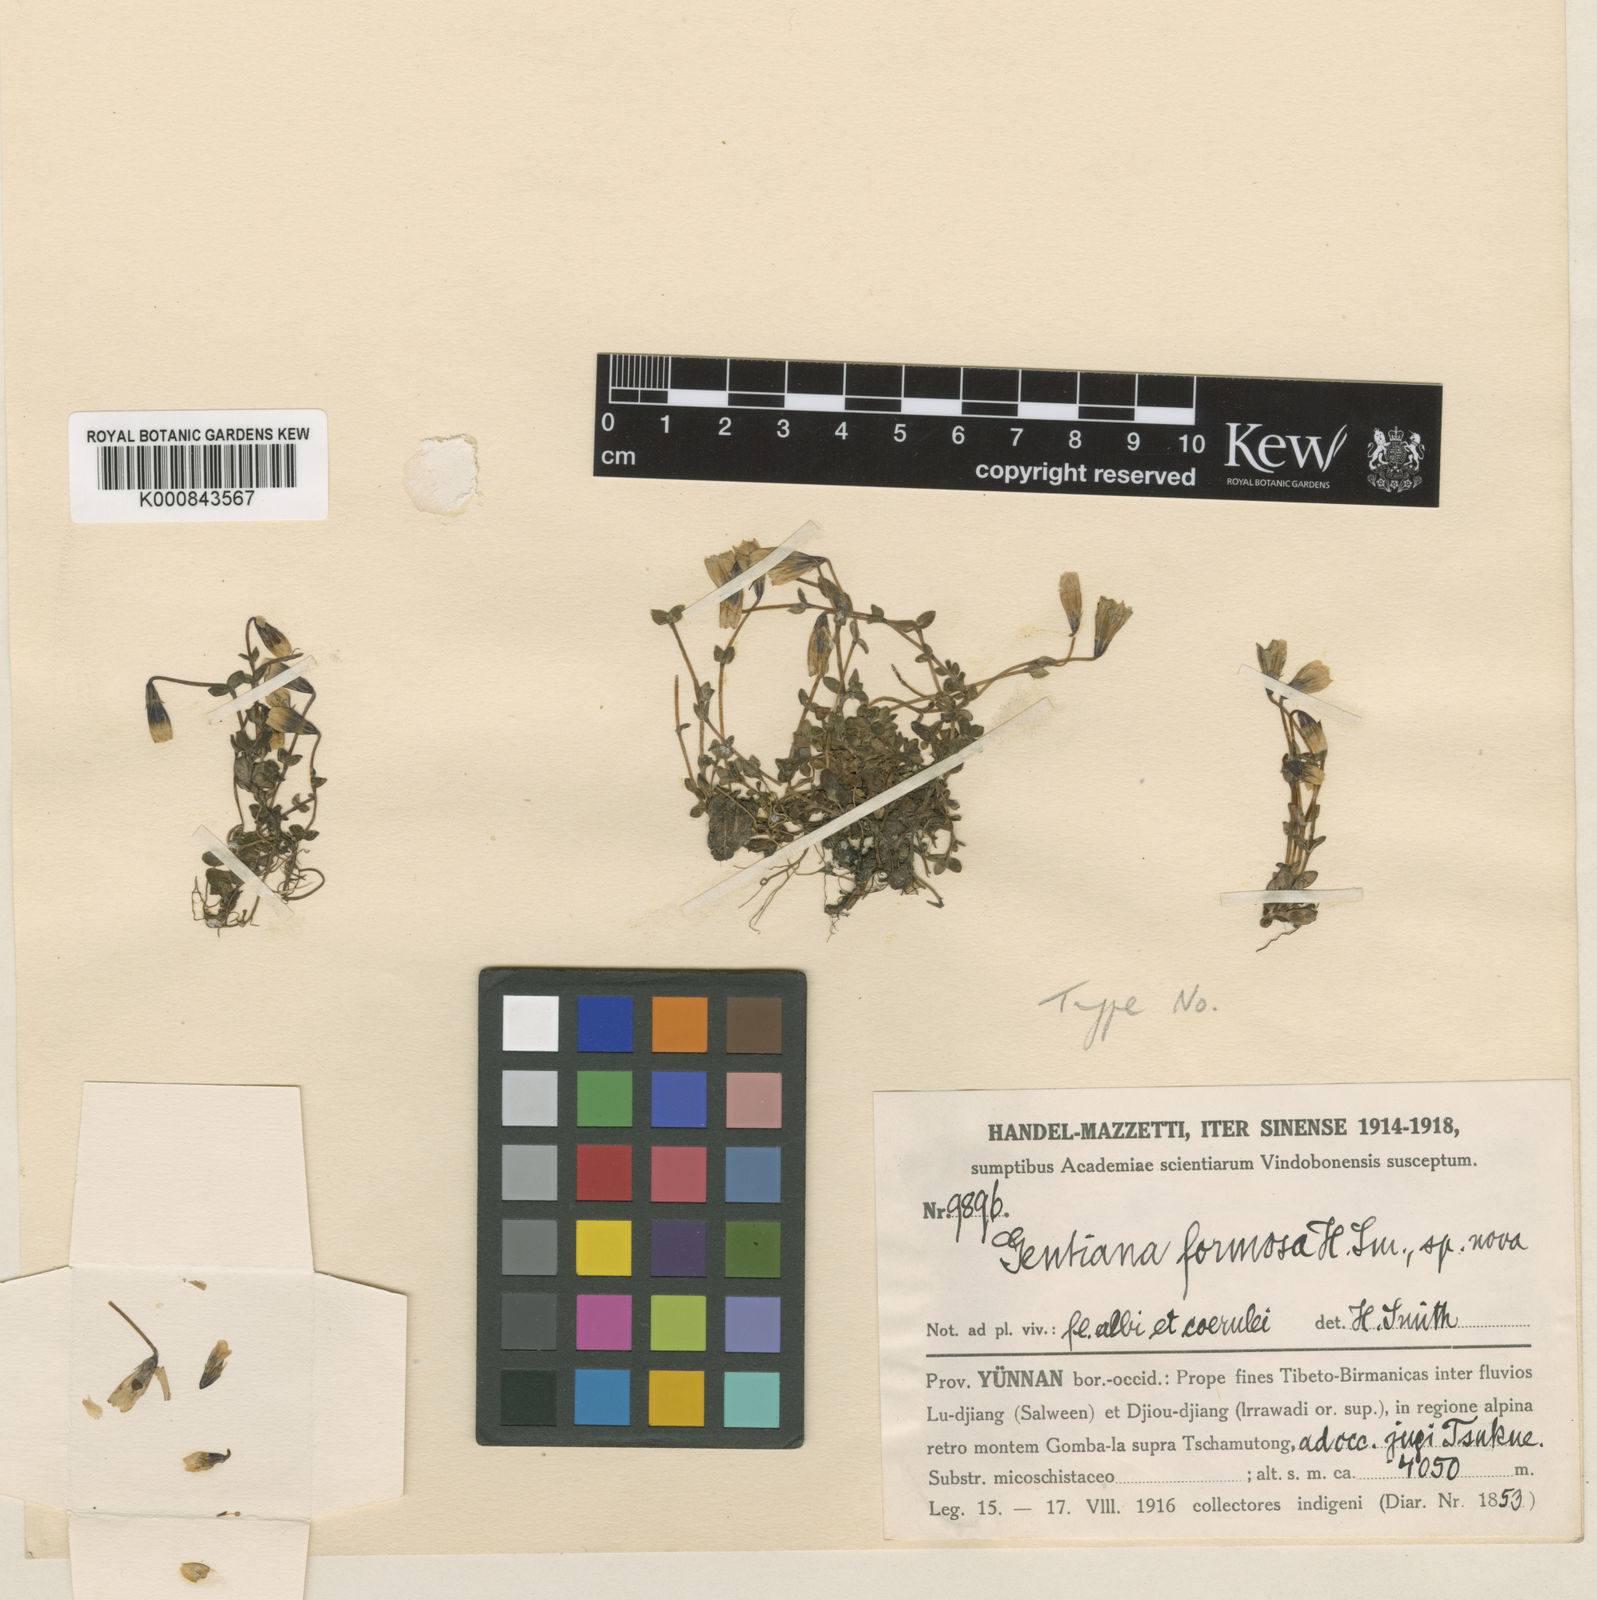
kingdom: Plantae
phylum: Tracheophyta
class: Magnoliopsida
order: Gentianales
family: Gentianaceae
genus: Gentiana
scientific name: Gentiana formosa
